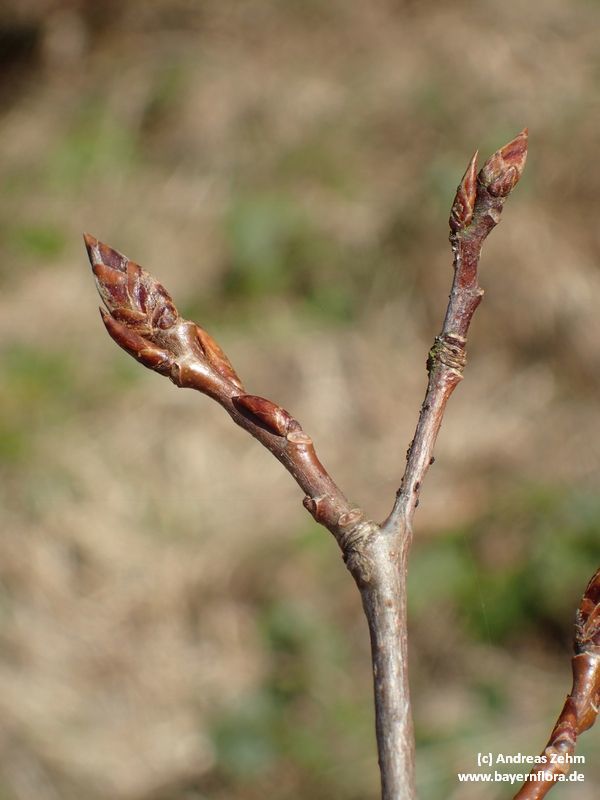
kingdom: Plantae
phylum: Tracheophyta
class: Magnoliopsida
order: Malpighiales
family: Salicaceae
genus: Populus
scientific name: Populus tremula
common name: European aspen
